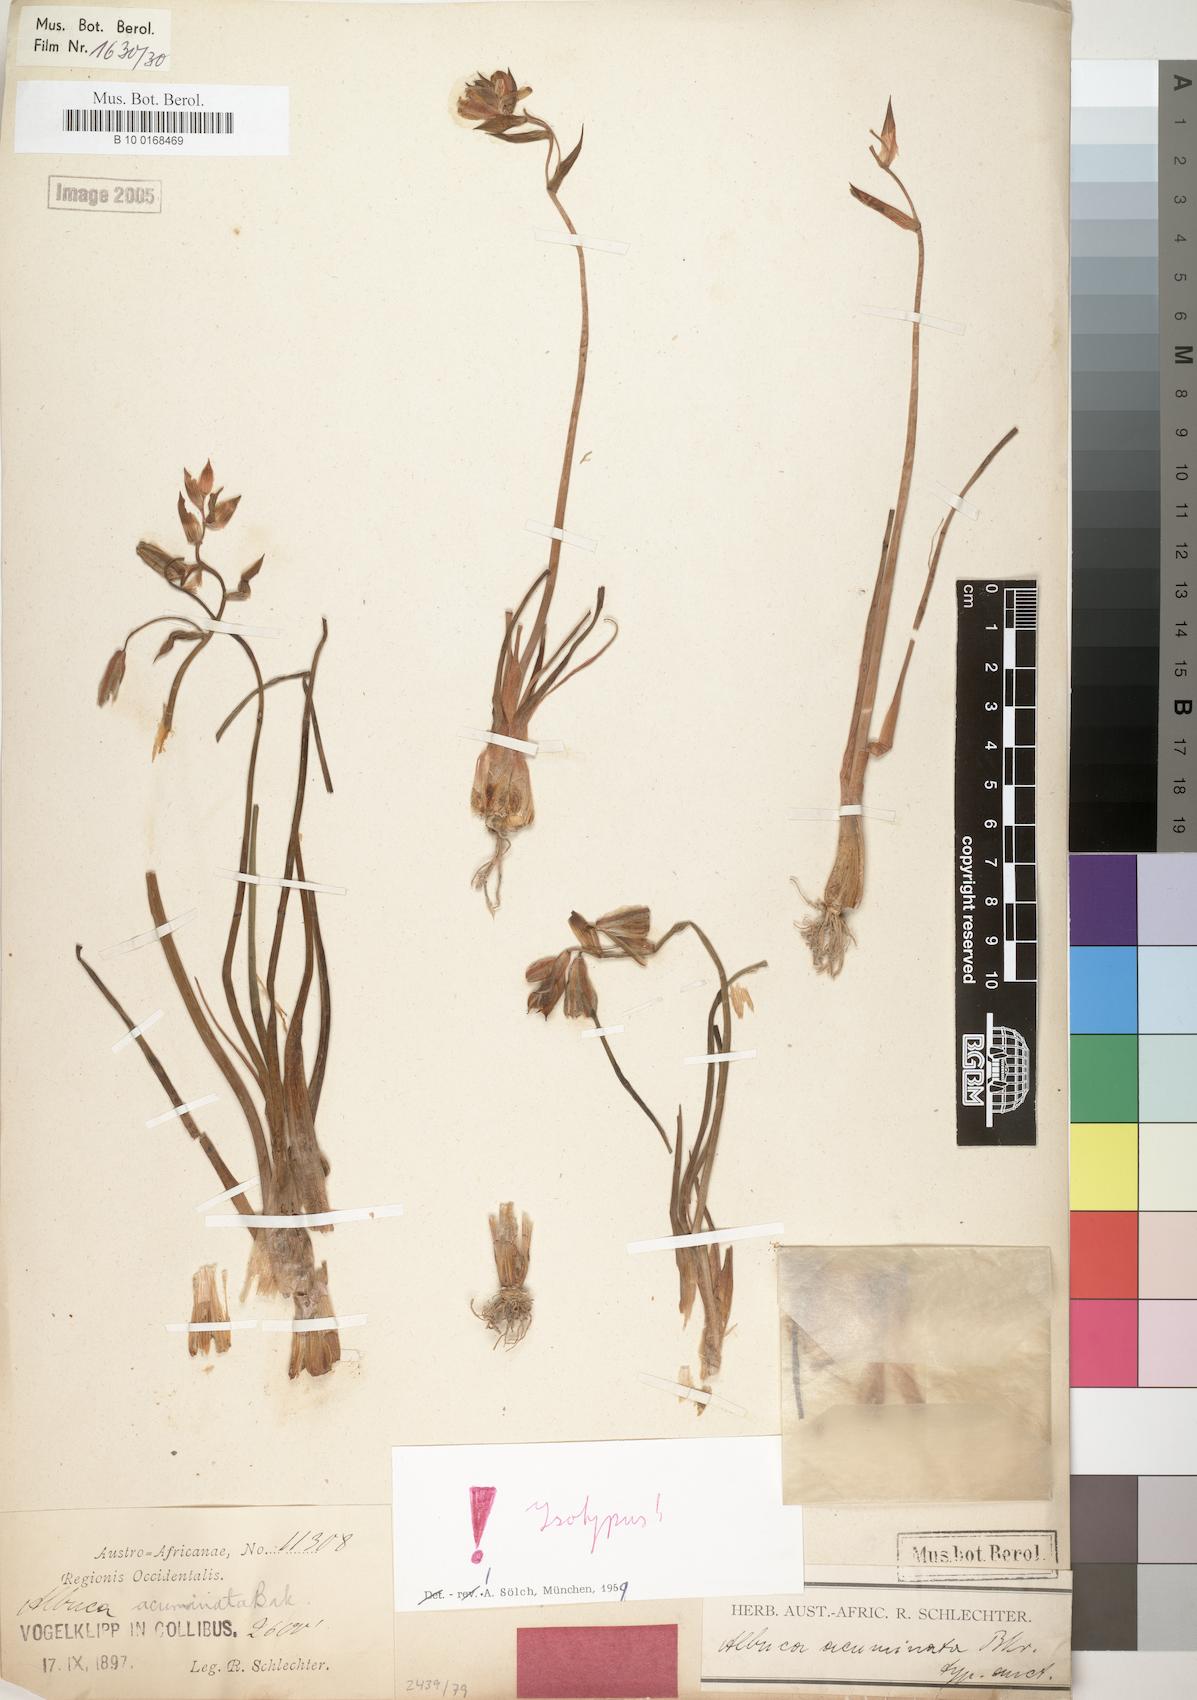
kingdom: Plantae
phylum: Tracheophyta
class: Liliopsida
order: Asparagales
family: Asparagaceae
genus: Albuca
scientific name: Albuca acuminata
